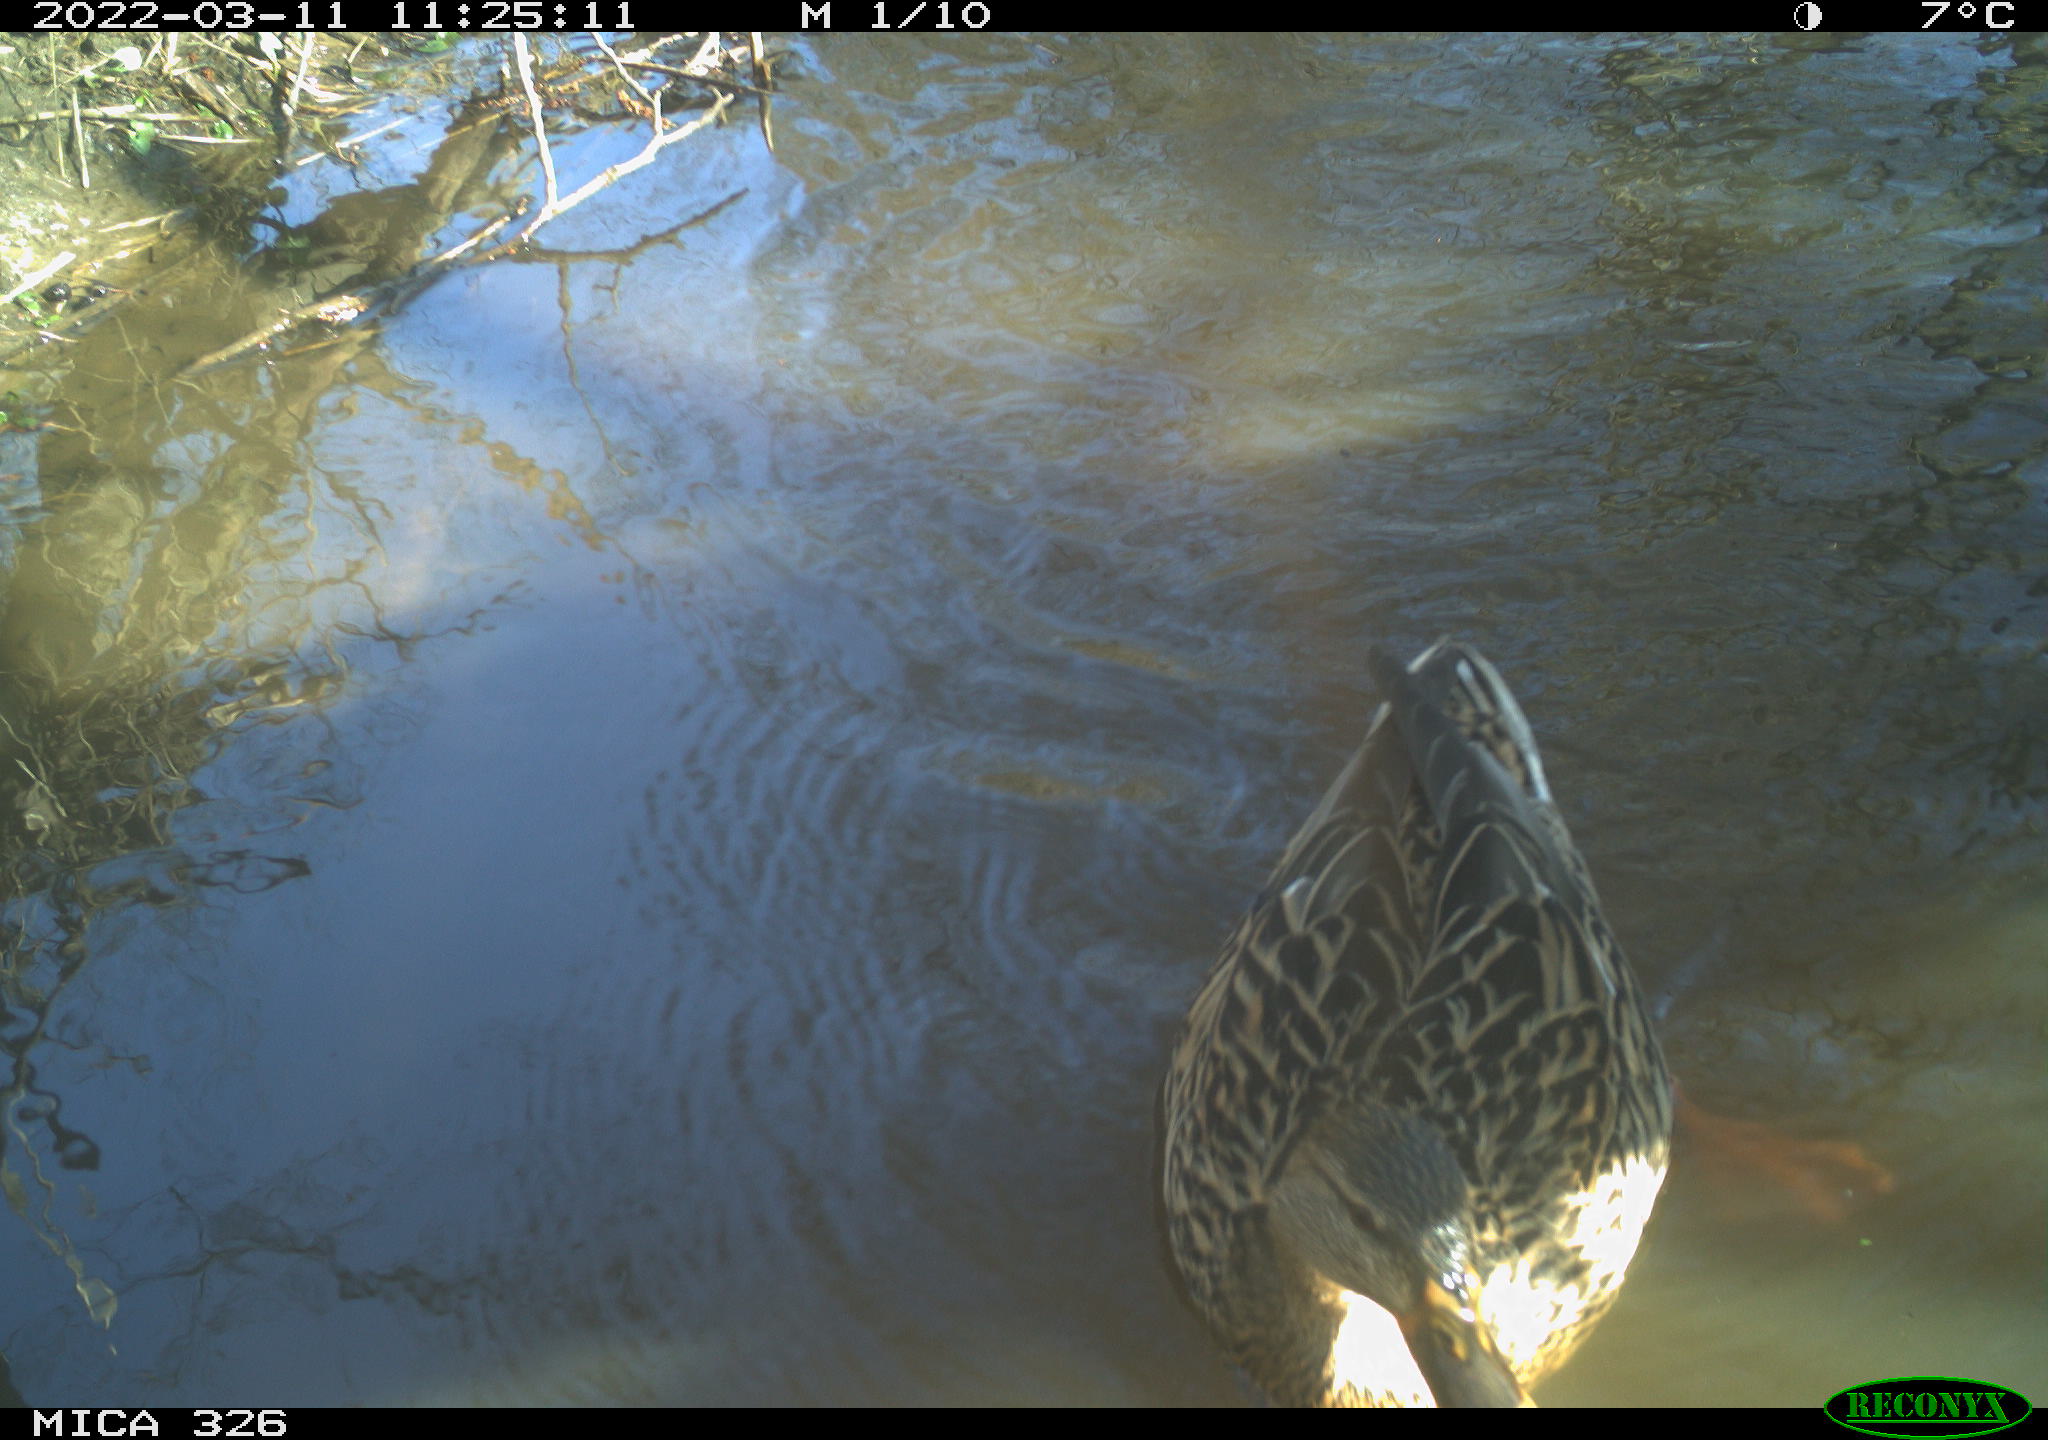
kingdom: Animalia
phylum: Chordata
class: Aves
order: Anseriformes
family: Anatidae
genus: Anas
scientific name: Anas platyrhynchos
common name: Mallard
